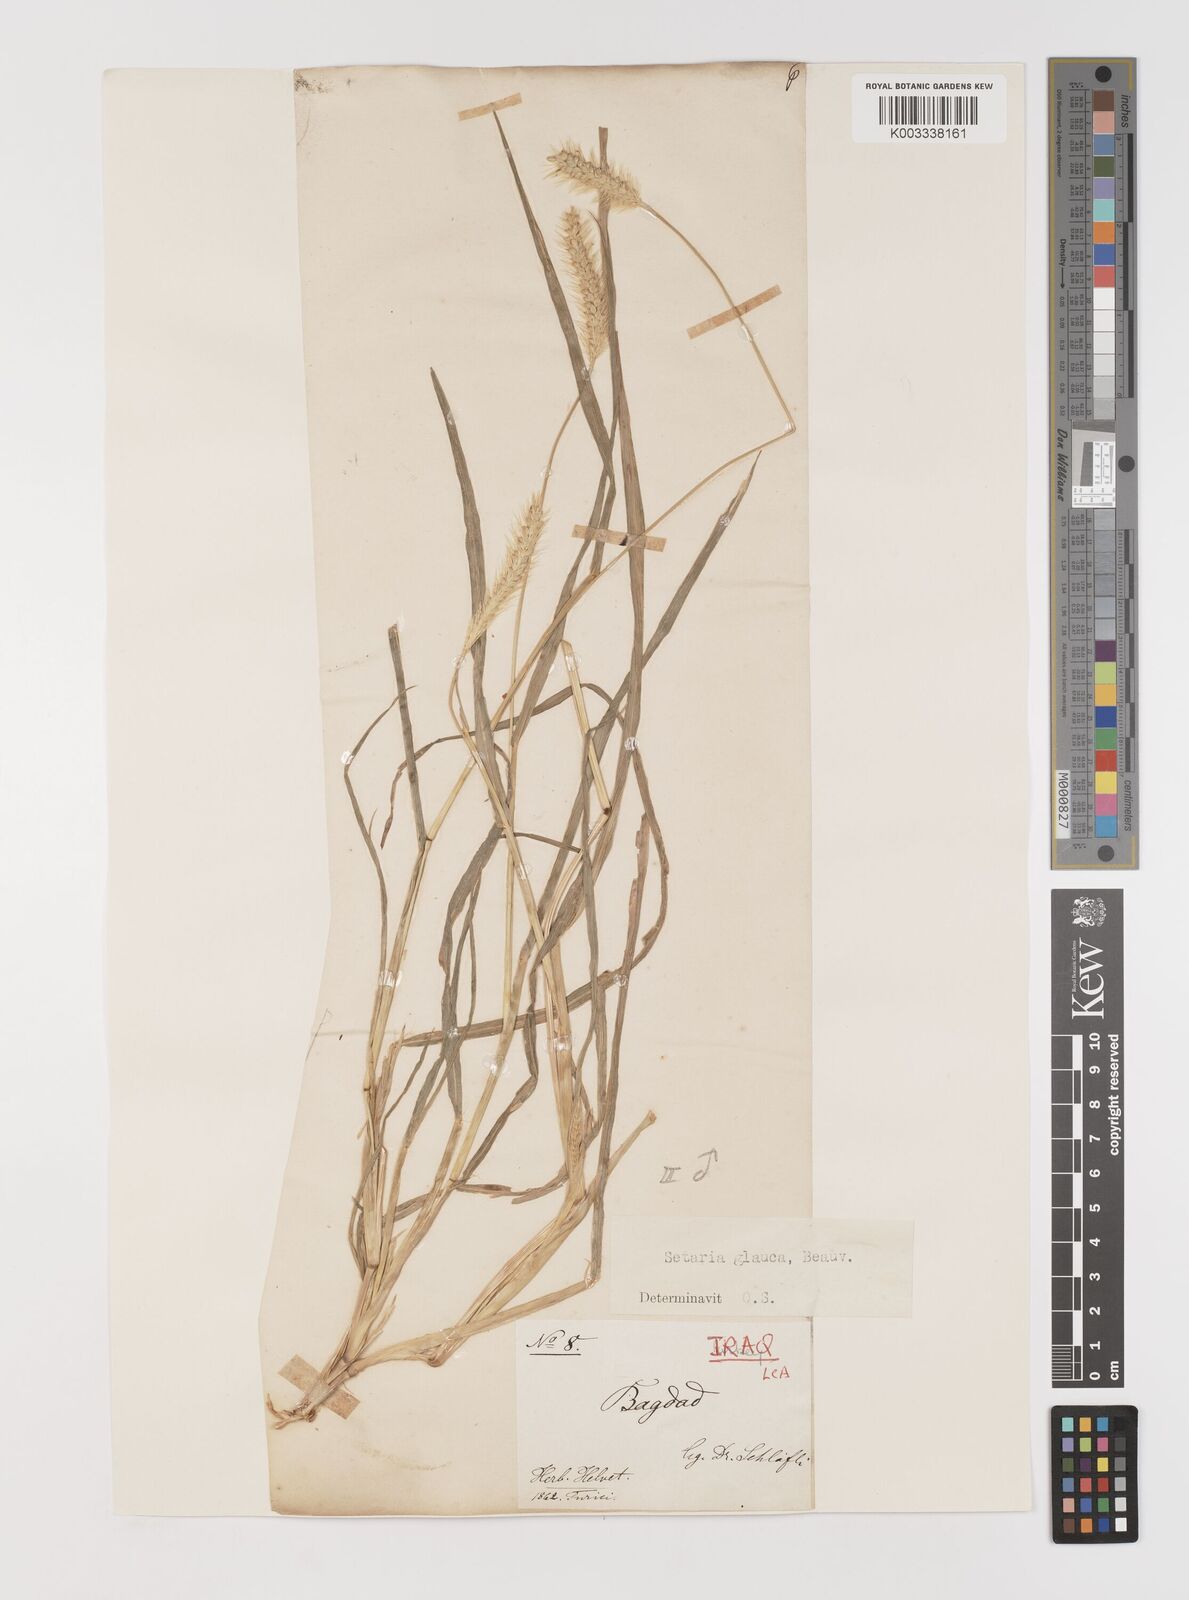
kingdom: Plantae
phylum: Tracheophyta
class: Liliopsida
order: Poales
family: Poaceae
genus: Setaria
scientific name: Setaria pumila
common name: Yellow bristle-grass
